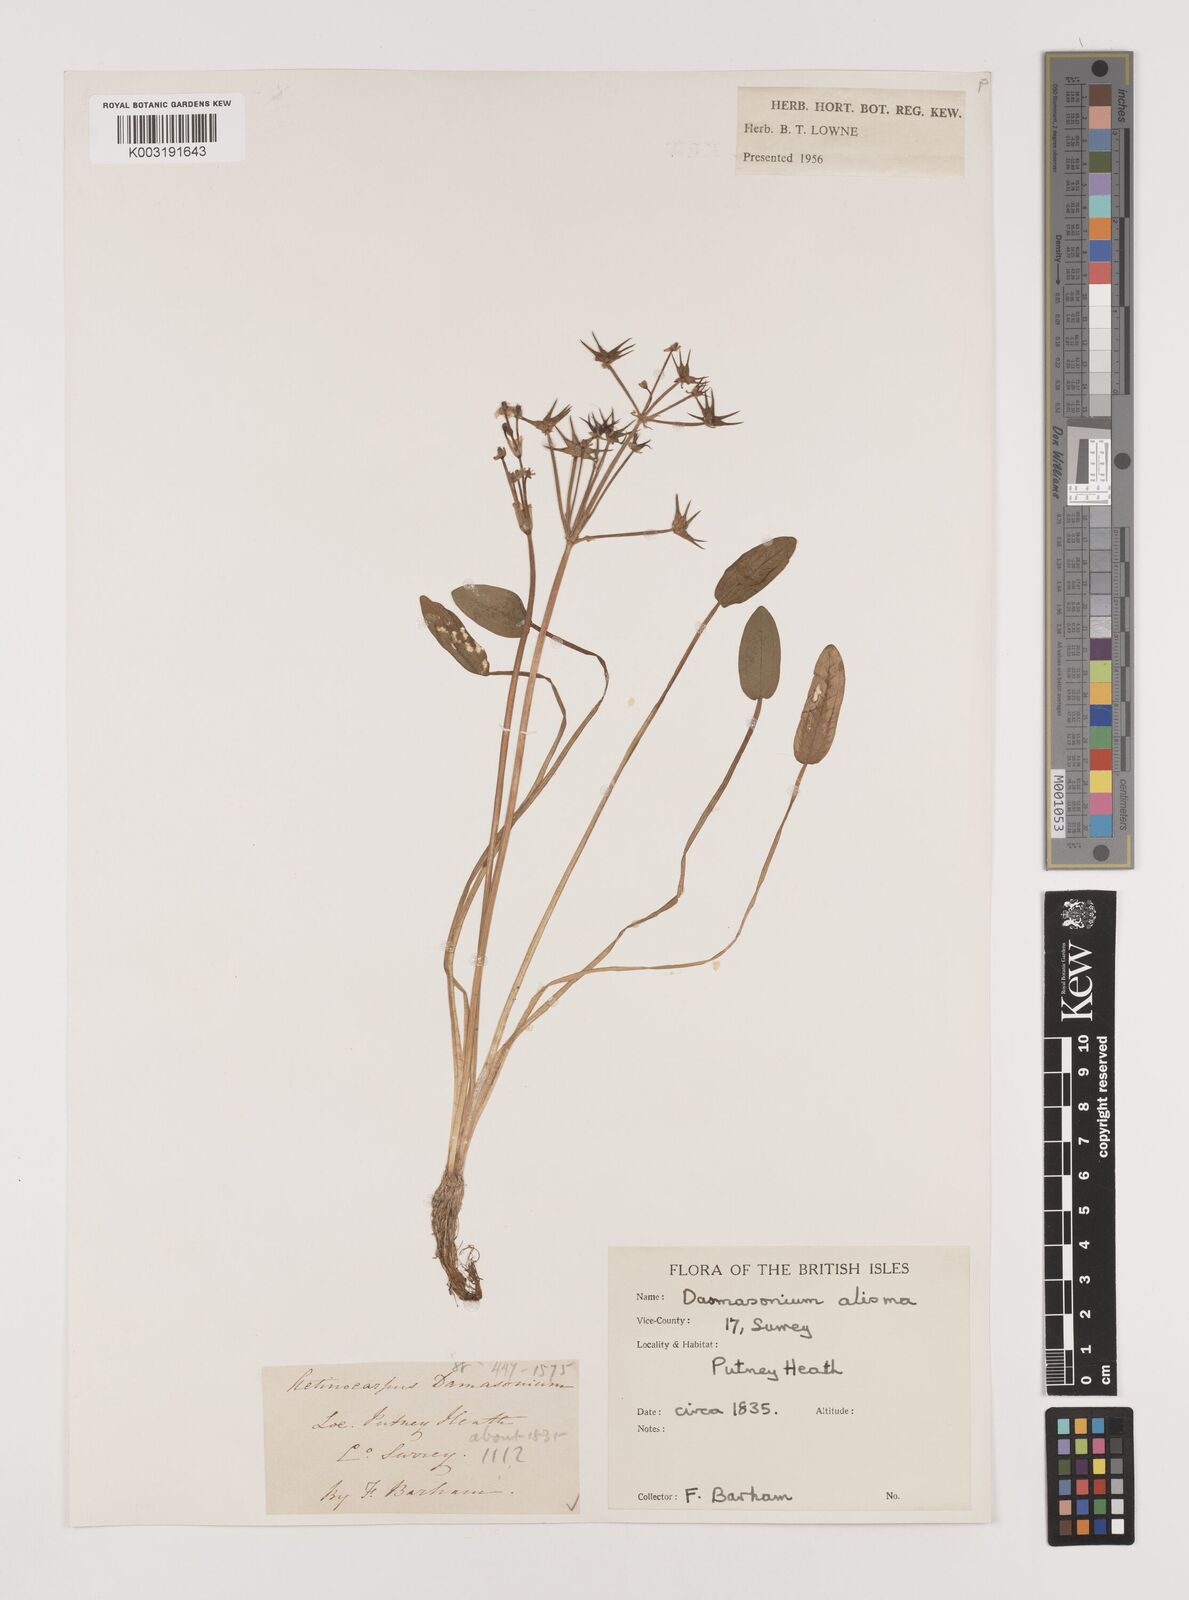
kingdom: Plantae
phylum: Tracheophyta
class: Liliopsida
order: Alismatales
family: Alismataceae
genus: Damasonium
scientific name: Damasonium alisma
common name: Starfruit
